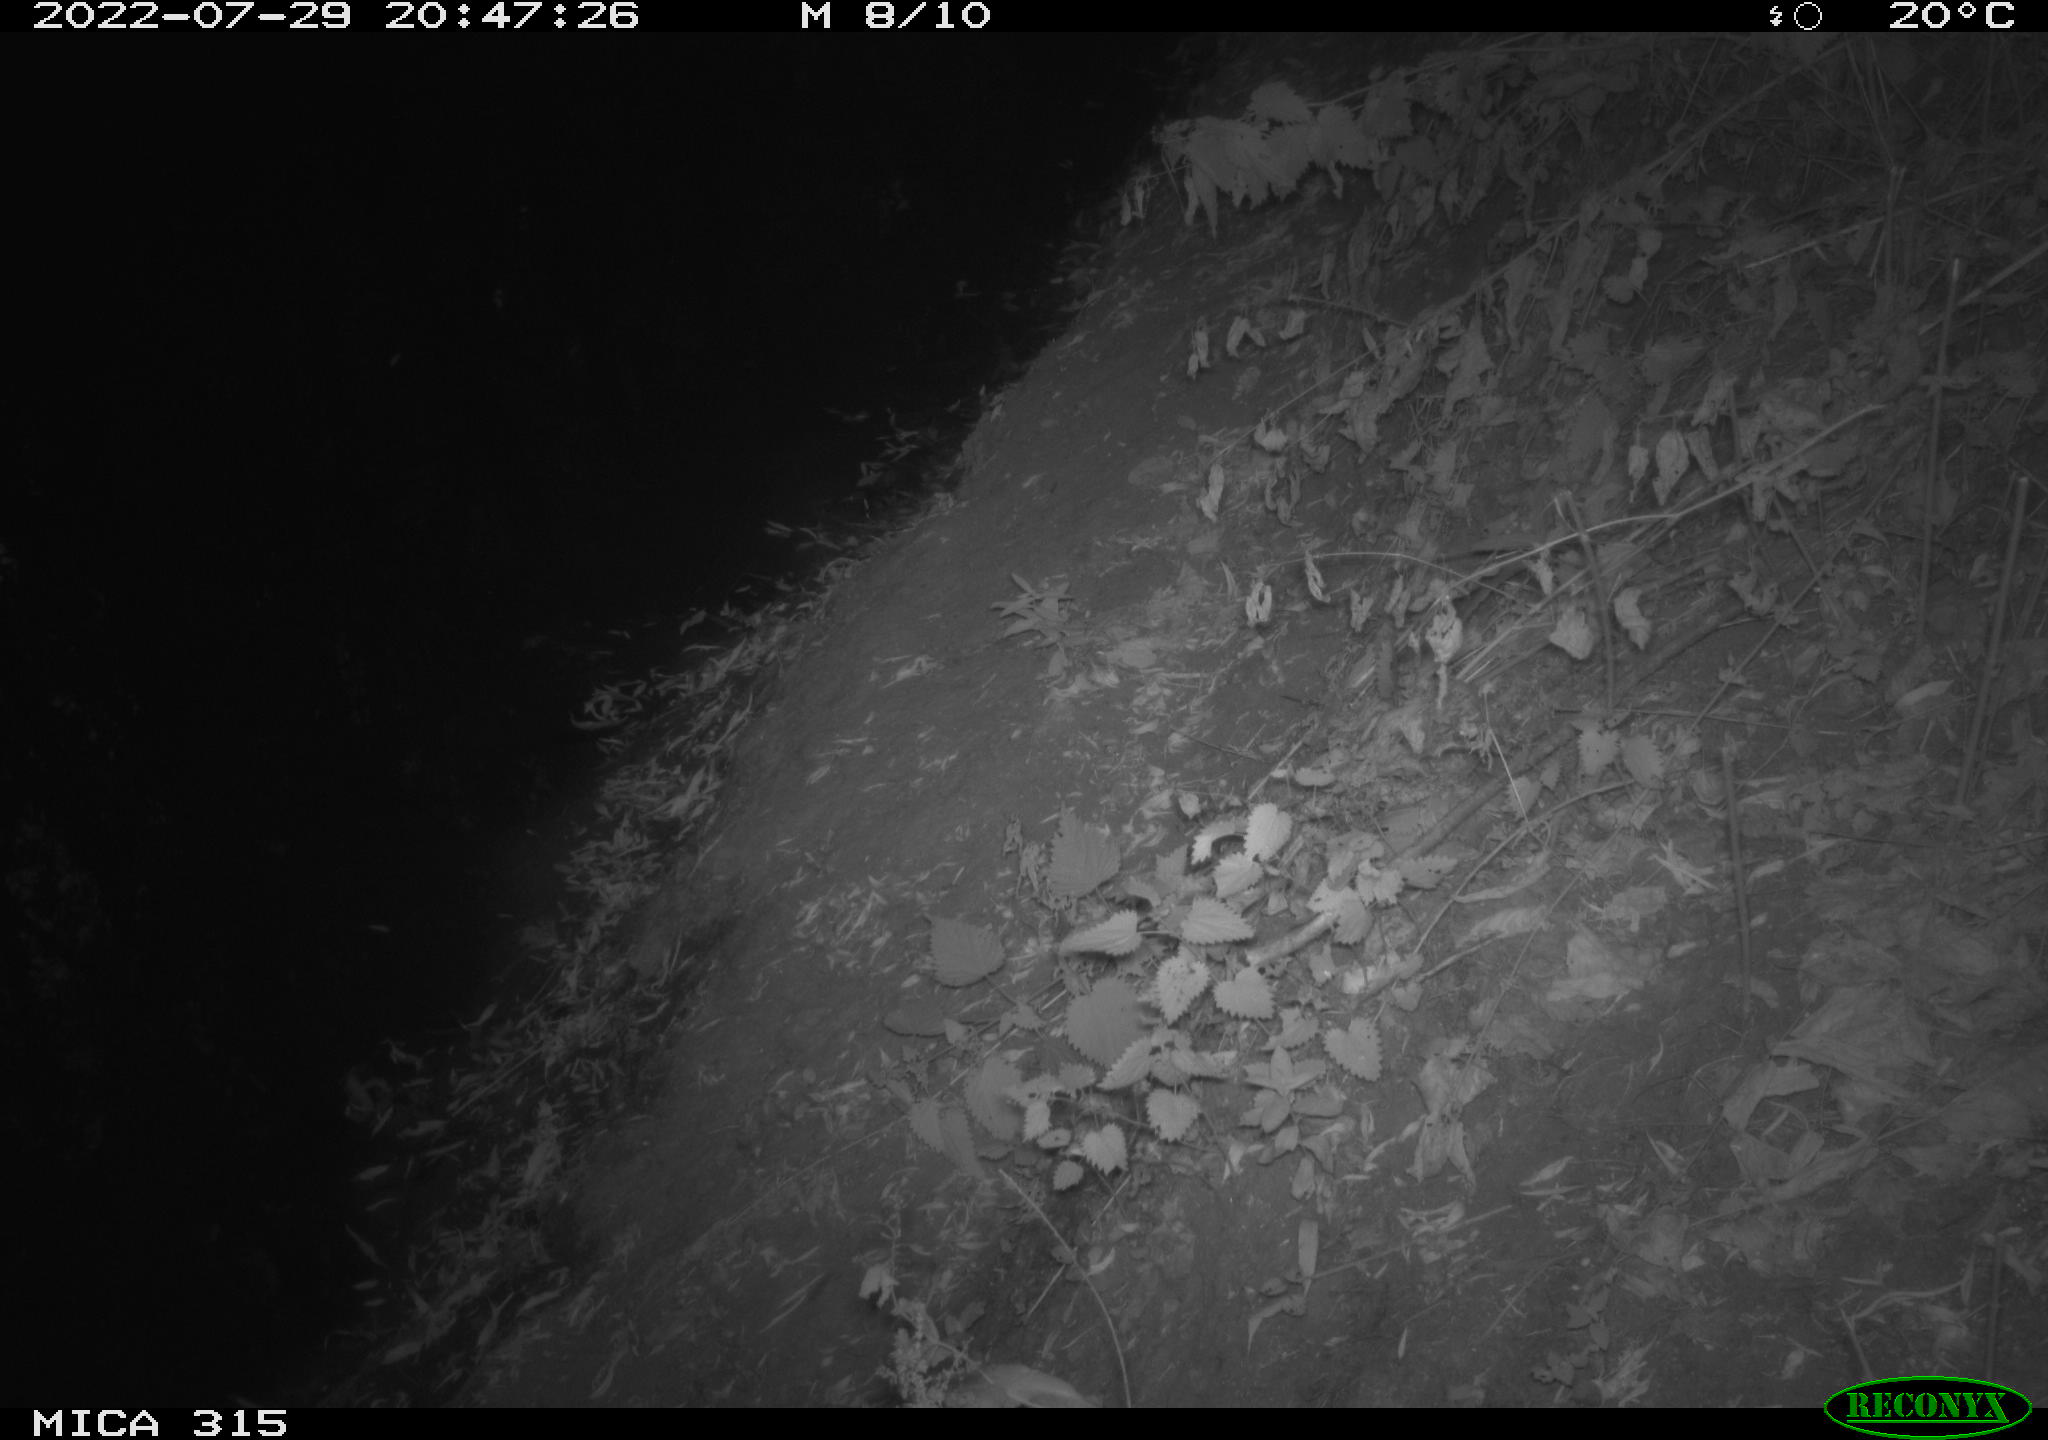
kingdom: Animalia
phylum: Chordata
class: Mammalia
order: Carnivora
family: Canidae
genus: Vulpes
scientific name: Vulpes vulpes
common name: Red fox
